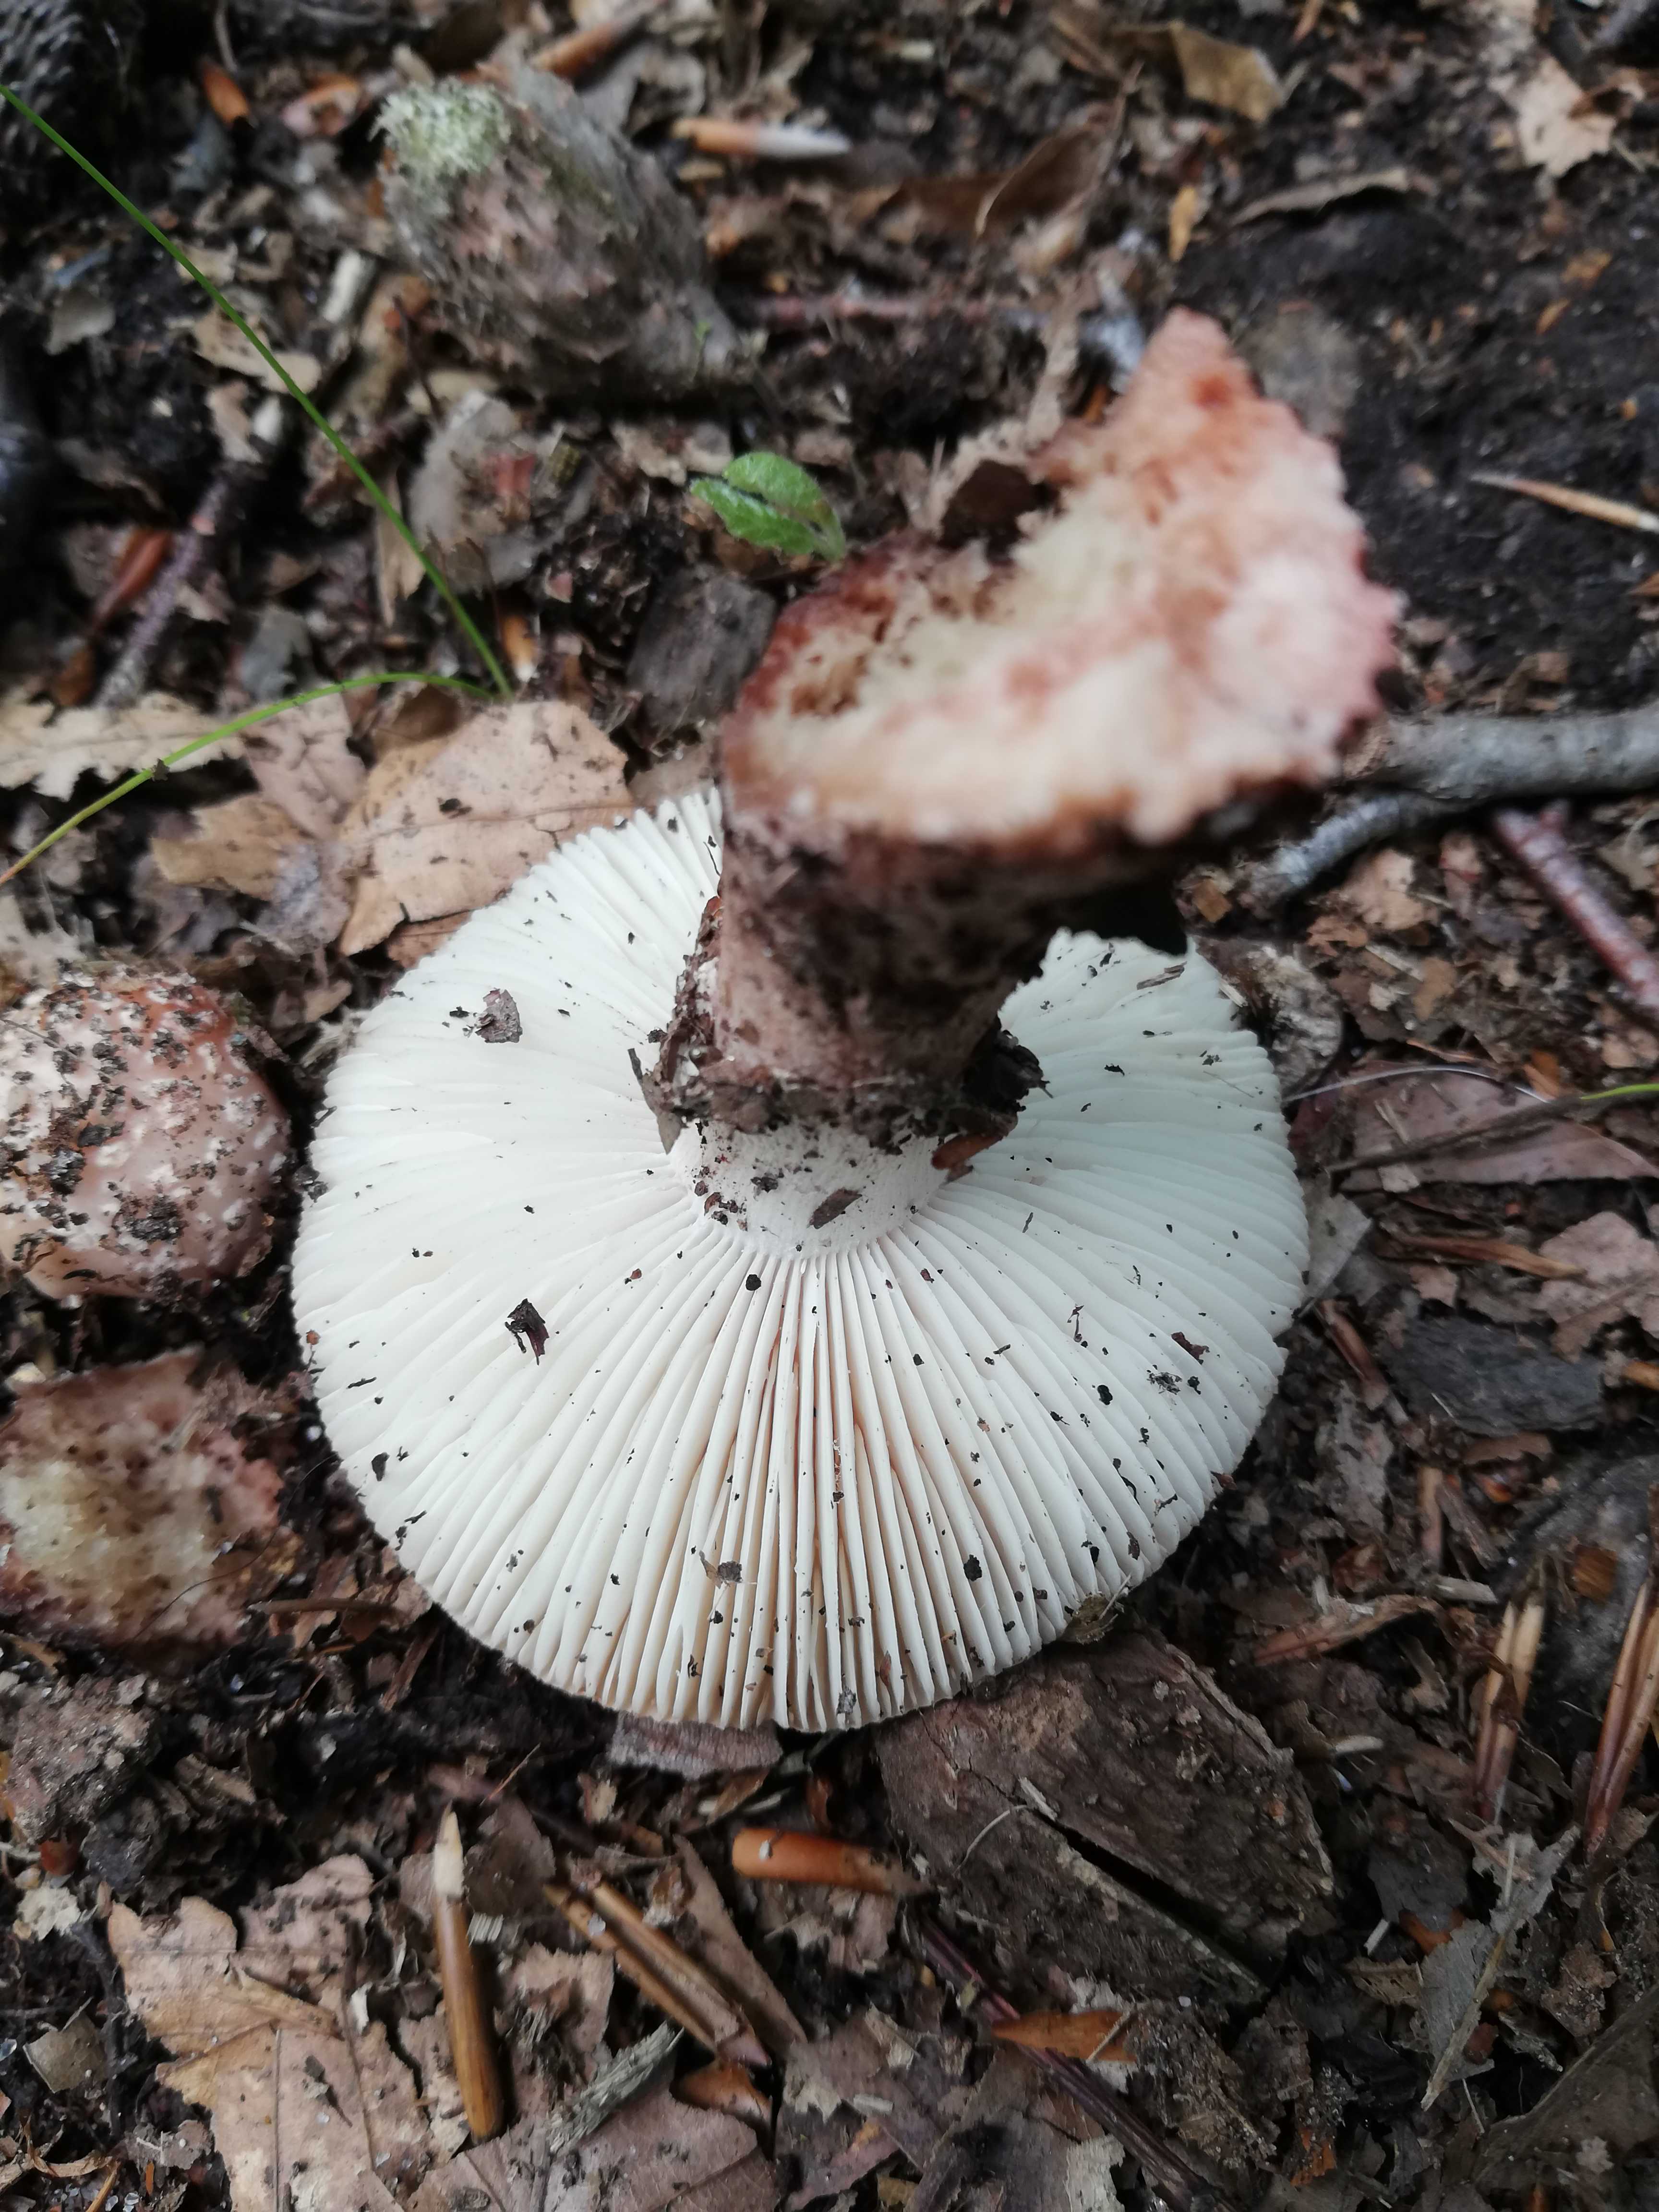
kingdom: Fungi
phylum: Basidiomycota
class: Agaricomycetes
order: Agaricales
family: Amanitaceae
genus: Amanita
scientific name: Amanita rubescens
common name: rødmende fluesvamp
